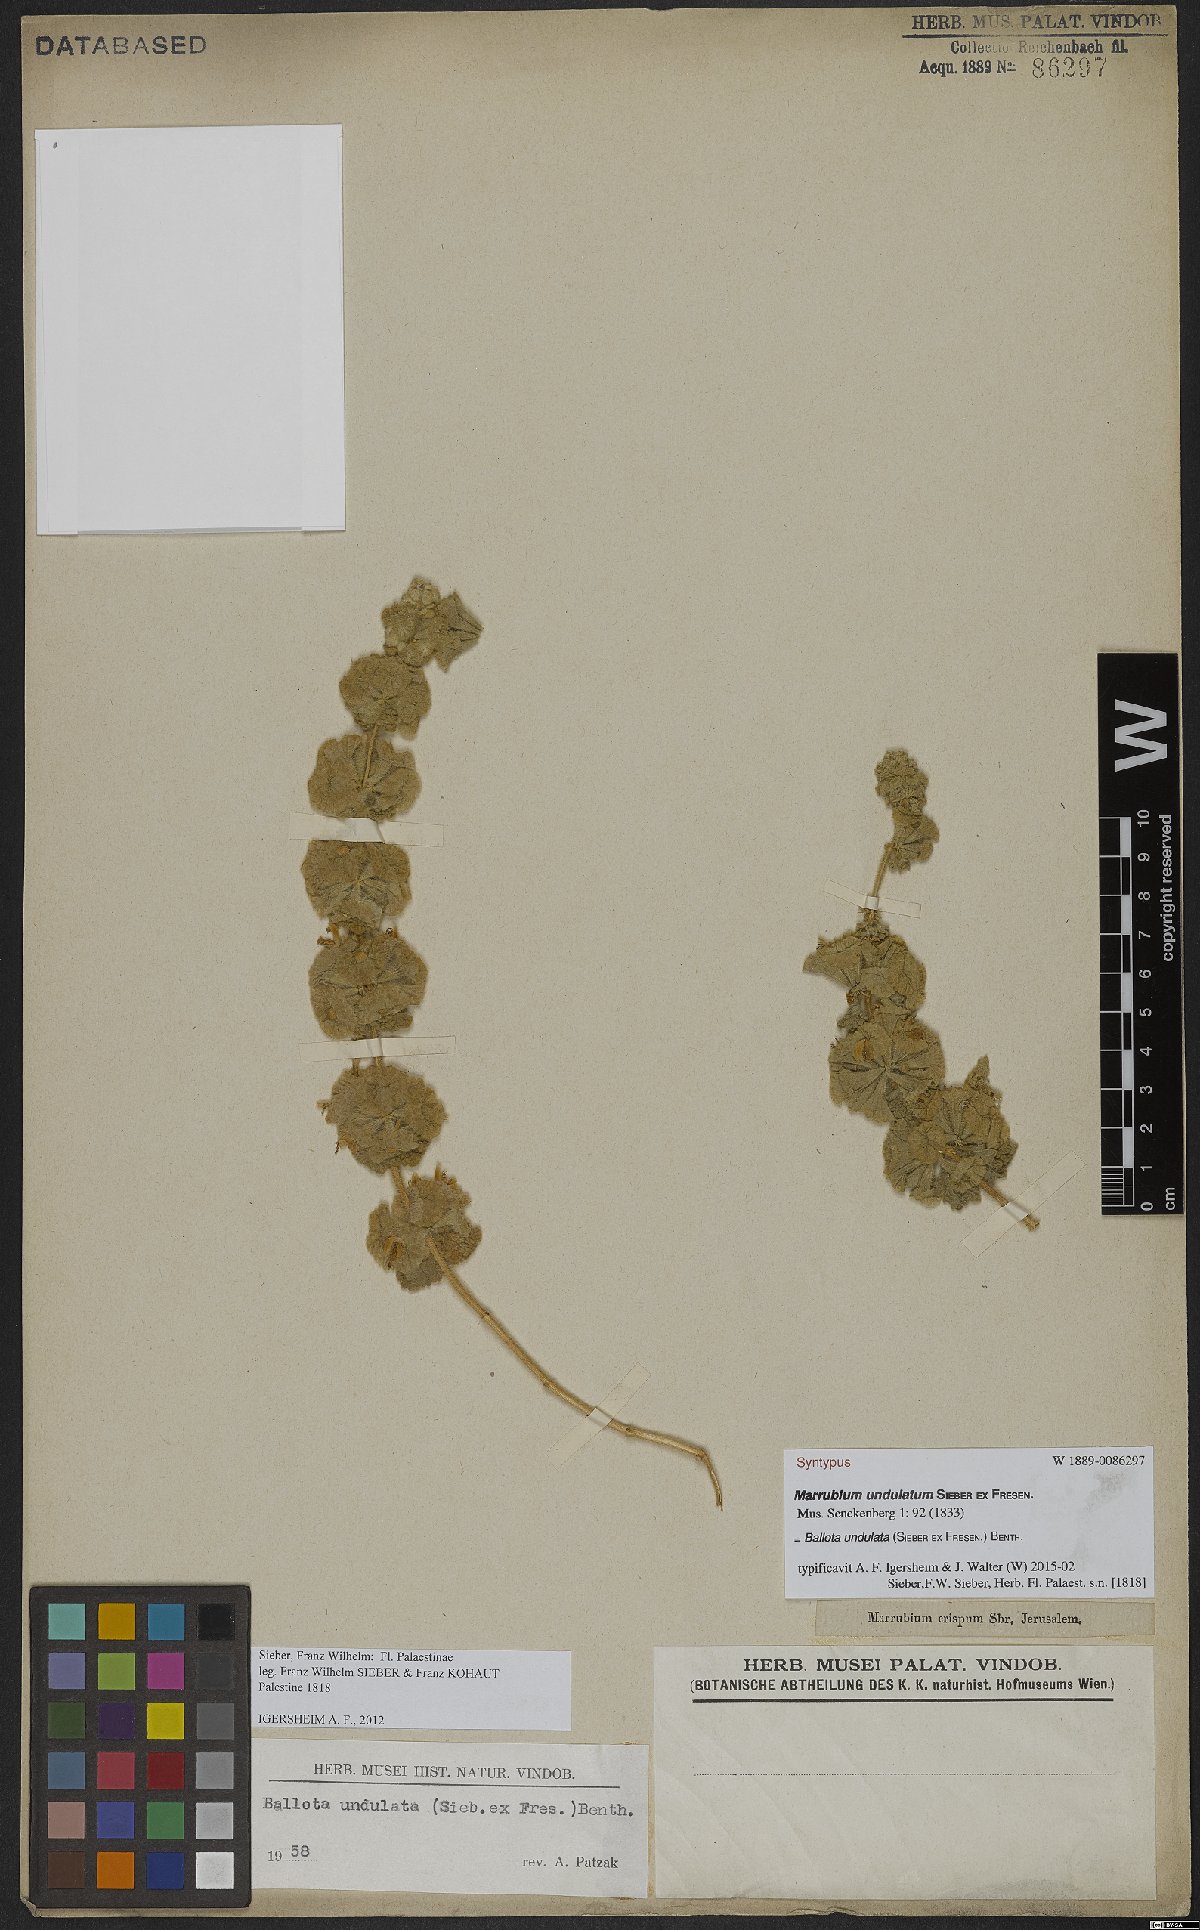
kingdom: Plantae
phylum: Tracheophyta
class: Magnoliopsida
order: Lamiales
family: Lamiaceae
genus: Pseudodictamnus
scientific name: Pseudodictamnus undulatus
